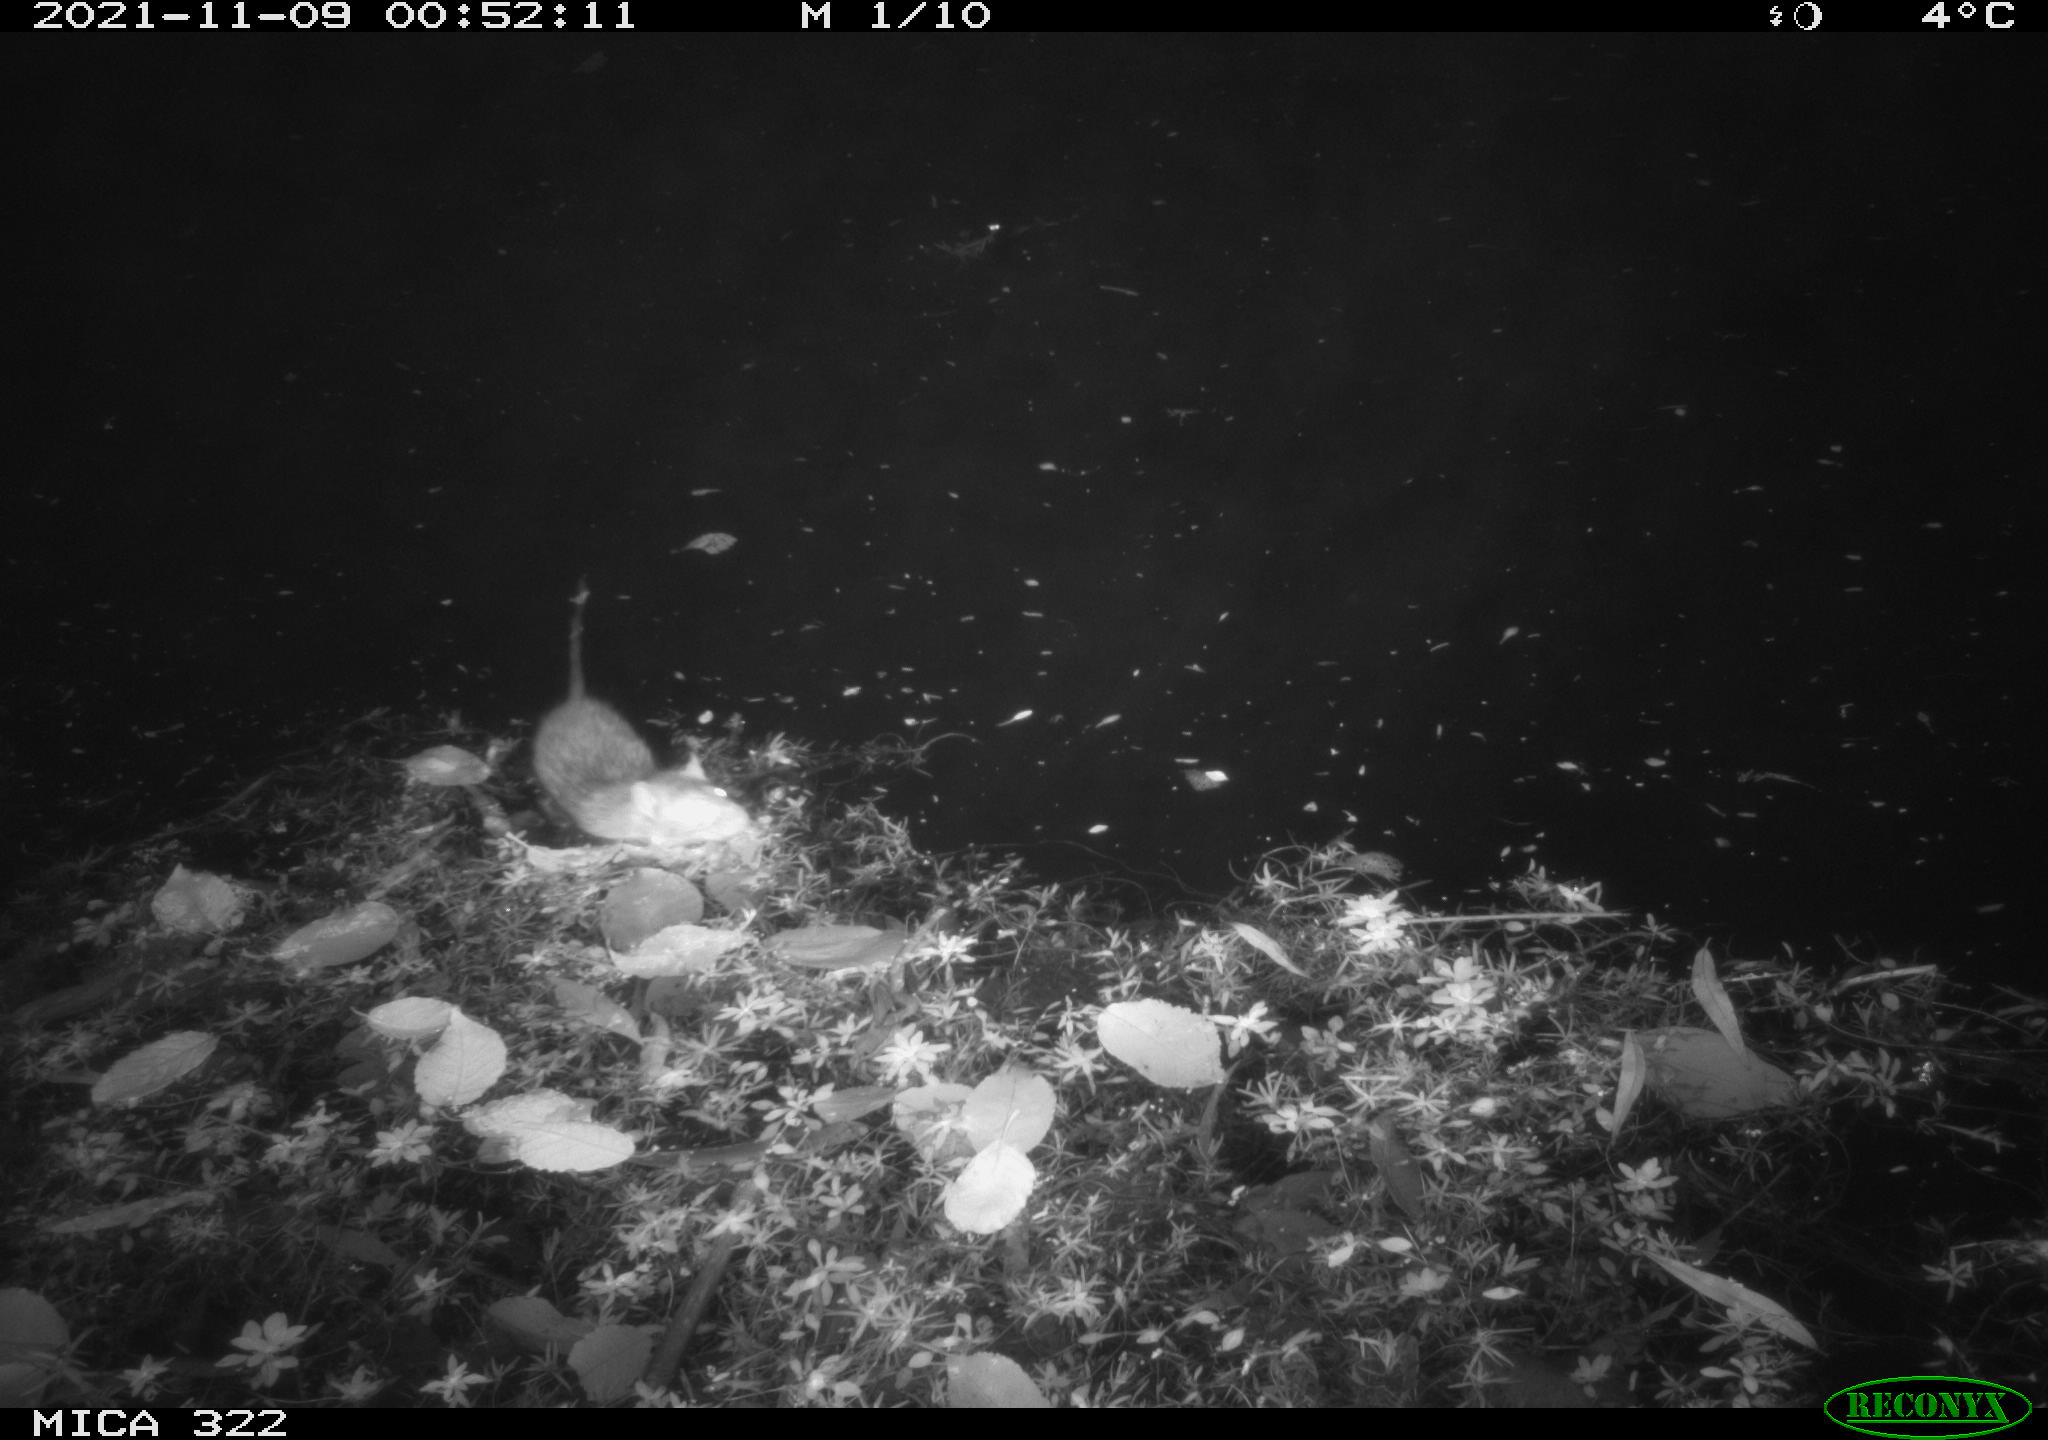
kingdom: Animalia
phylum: Chordata
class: Mammalia
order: Rodentia
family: Muridae
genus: Rattus
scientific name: Rattus norvegicus
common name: Brown rat
